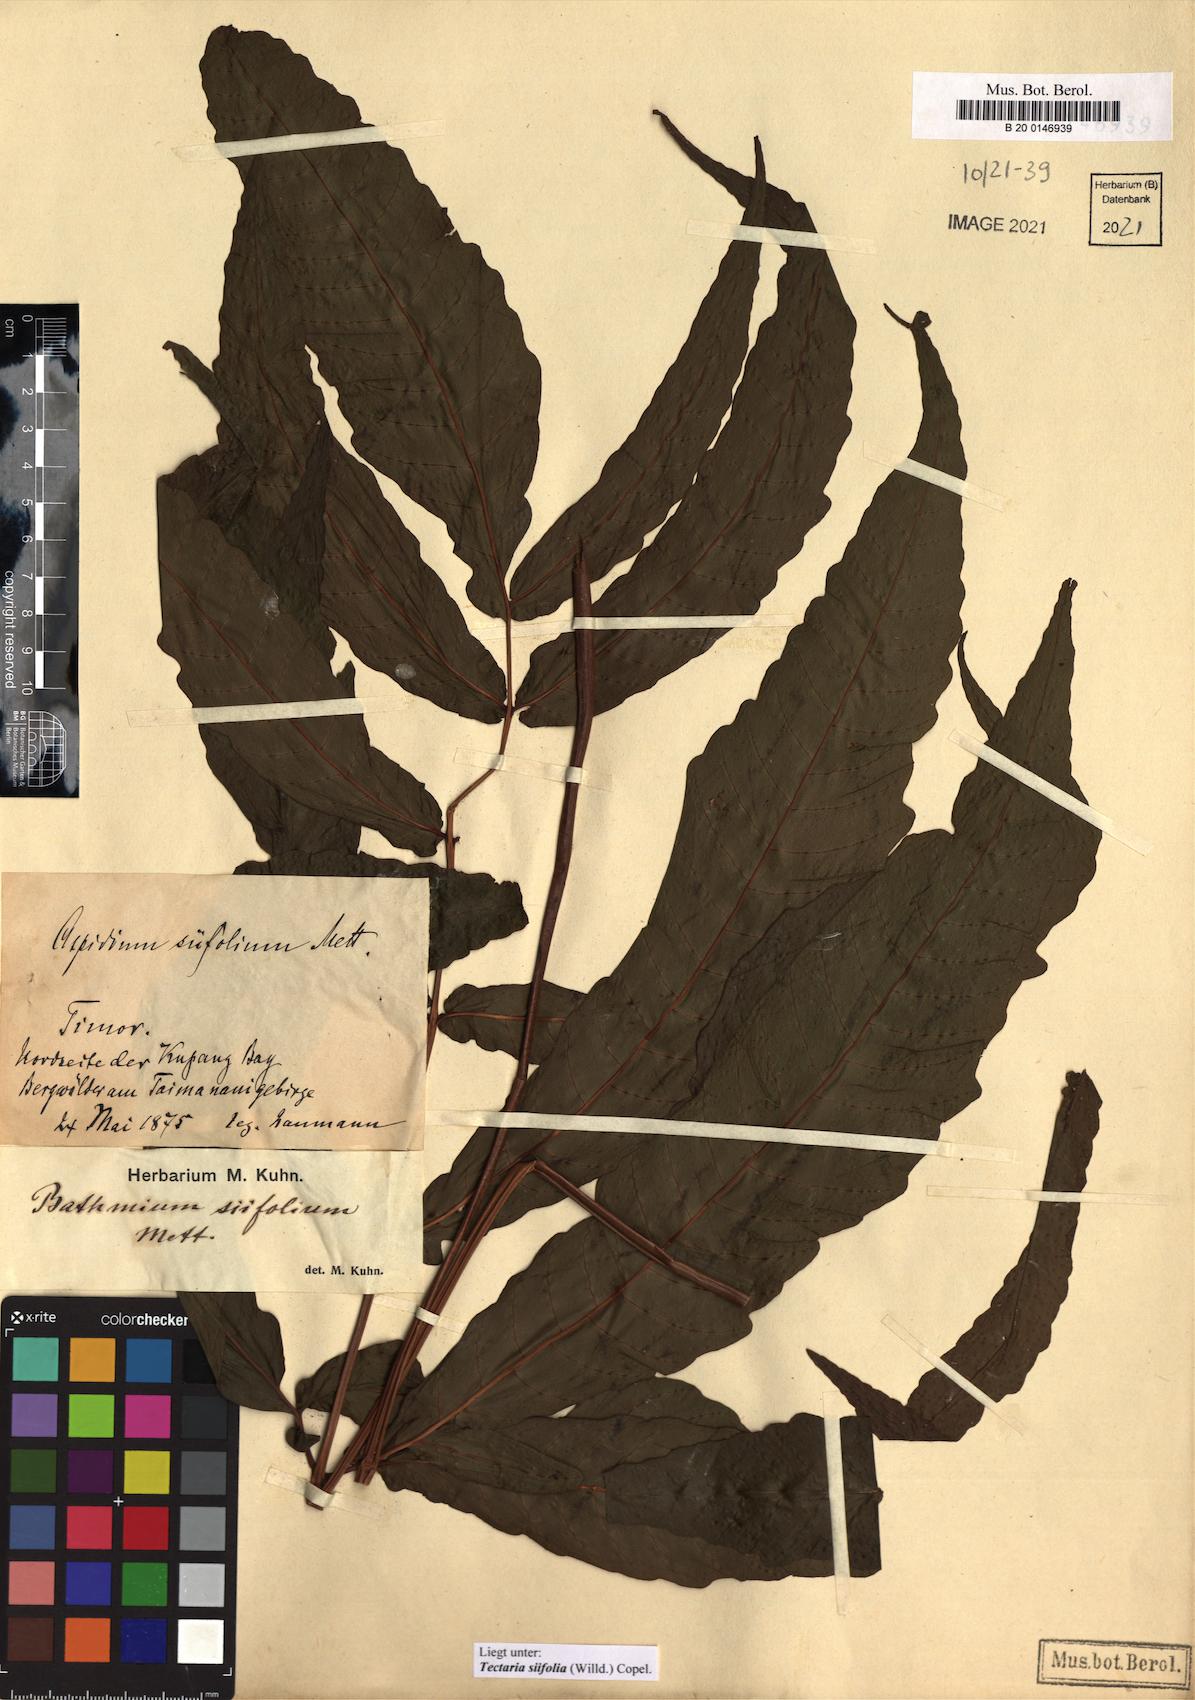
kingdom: Plantae
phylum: Tracheophyta
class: Polypodiopsida
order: Polypodiales
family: Tectariaceae
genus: Tectaria
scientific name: Tectaria siifolia
